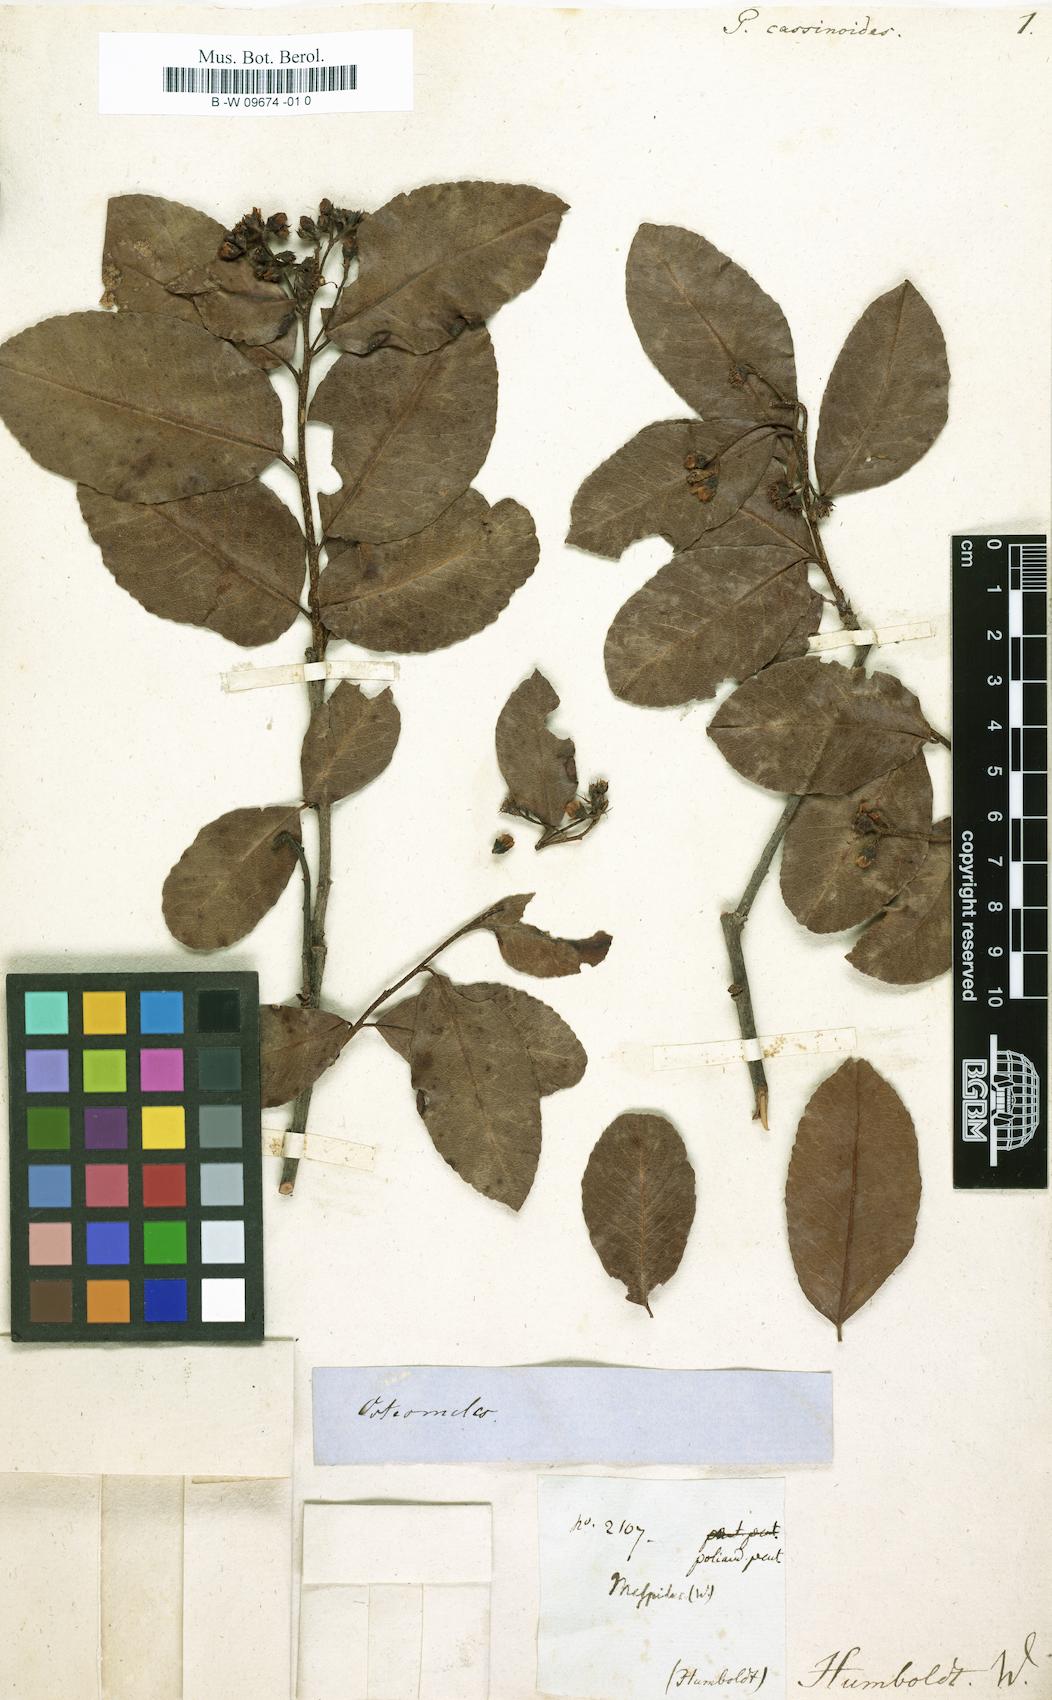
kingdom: Plantae
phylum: Tracheophyta
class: Magnoliopsida
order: Rosales
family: Rosaceae
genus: Pyrus
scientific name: Pyrus
